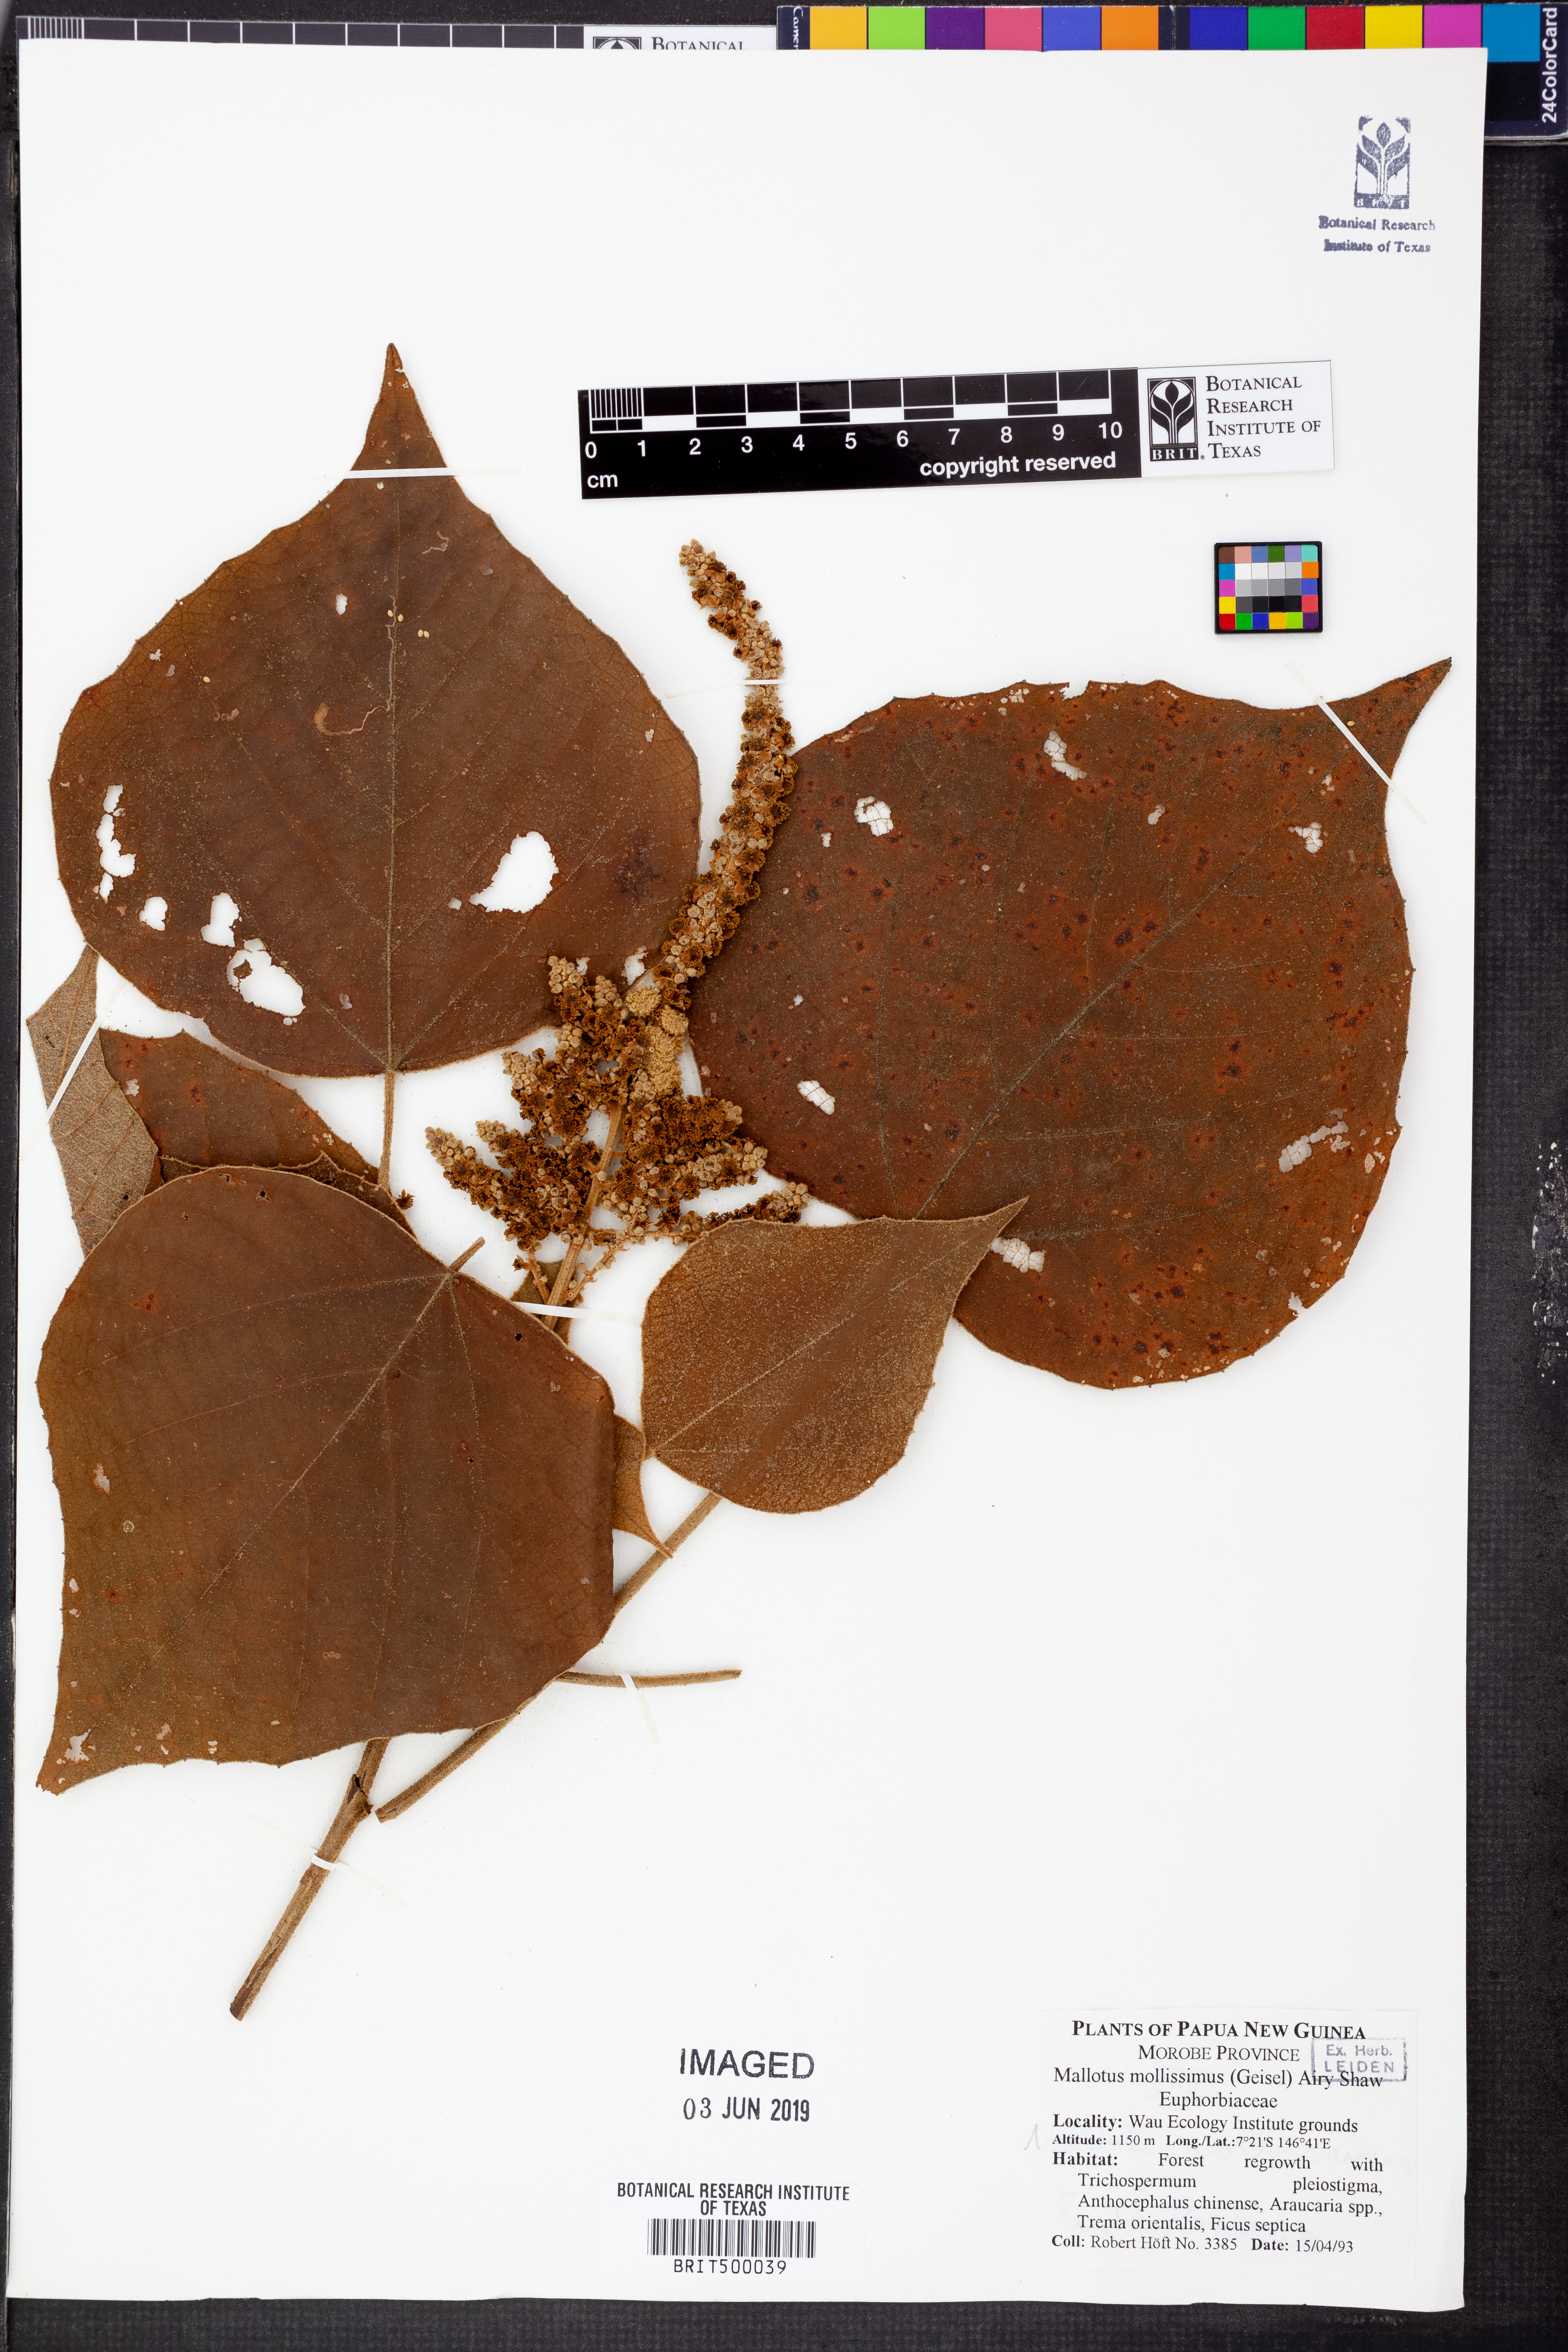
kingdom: Plantae
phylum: Tracheophyta
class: Magnoliopsida
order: Malpighiales
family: Euphorbiaceae
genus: Mallotus
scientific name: Mallotus mollissimus
